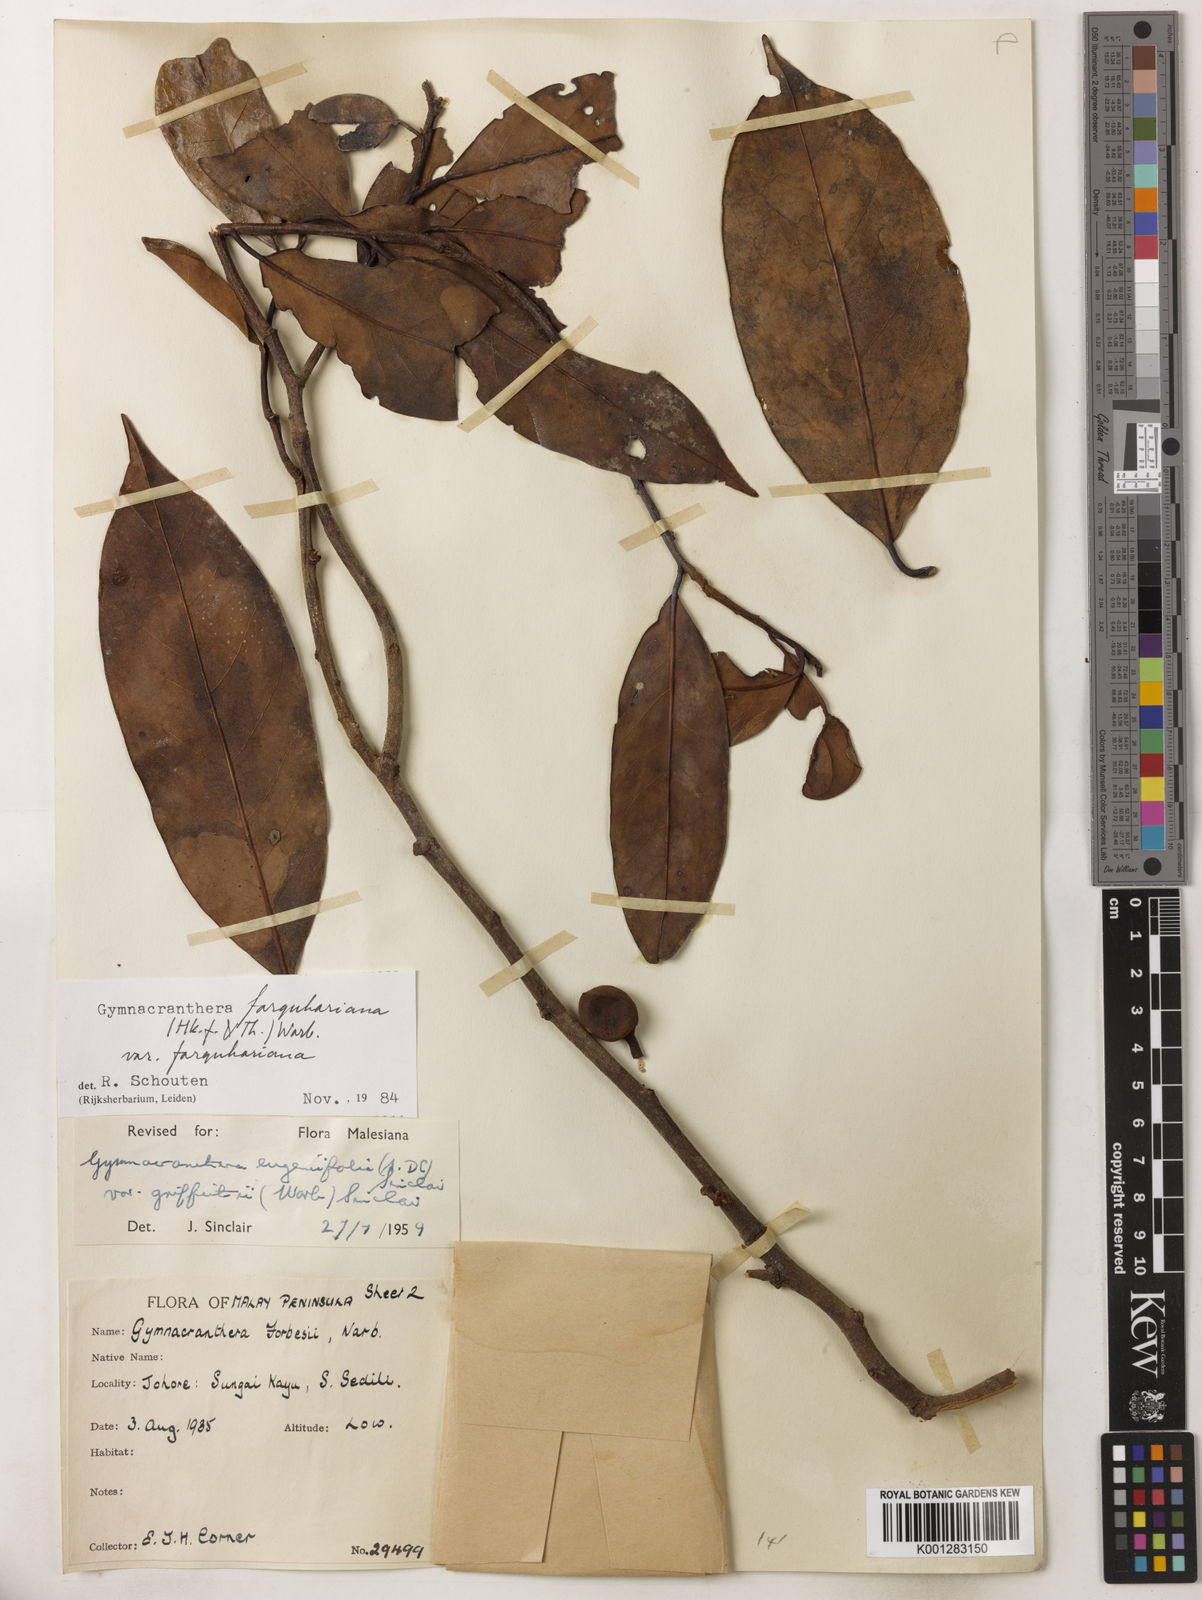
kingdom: Plantae
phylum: Tracheophyta
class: Magnoliopsida
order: Magnoliales
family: Myristicaceae
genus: Gymnacranthera
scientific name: Gymnacranthera farquhariana
